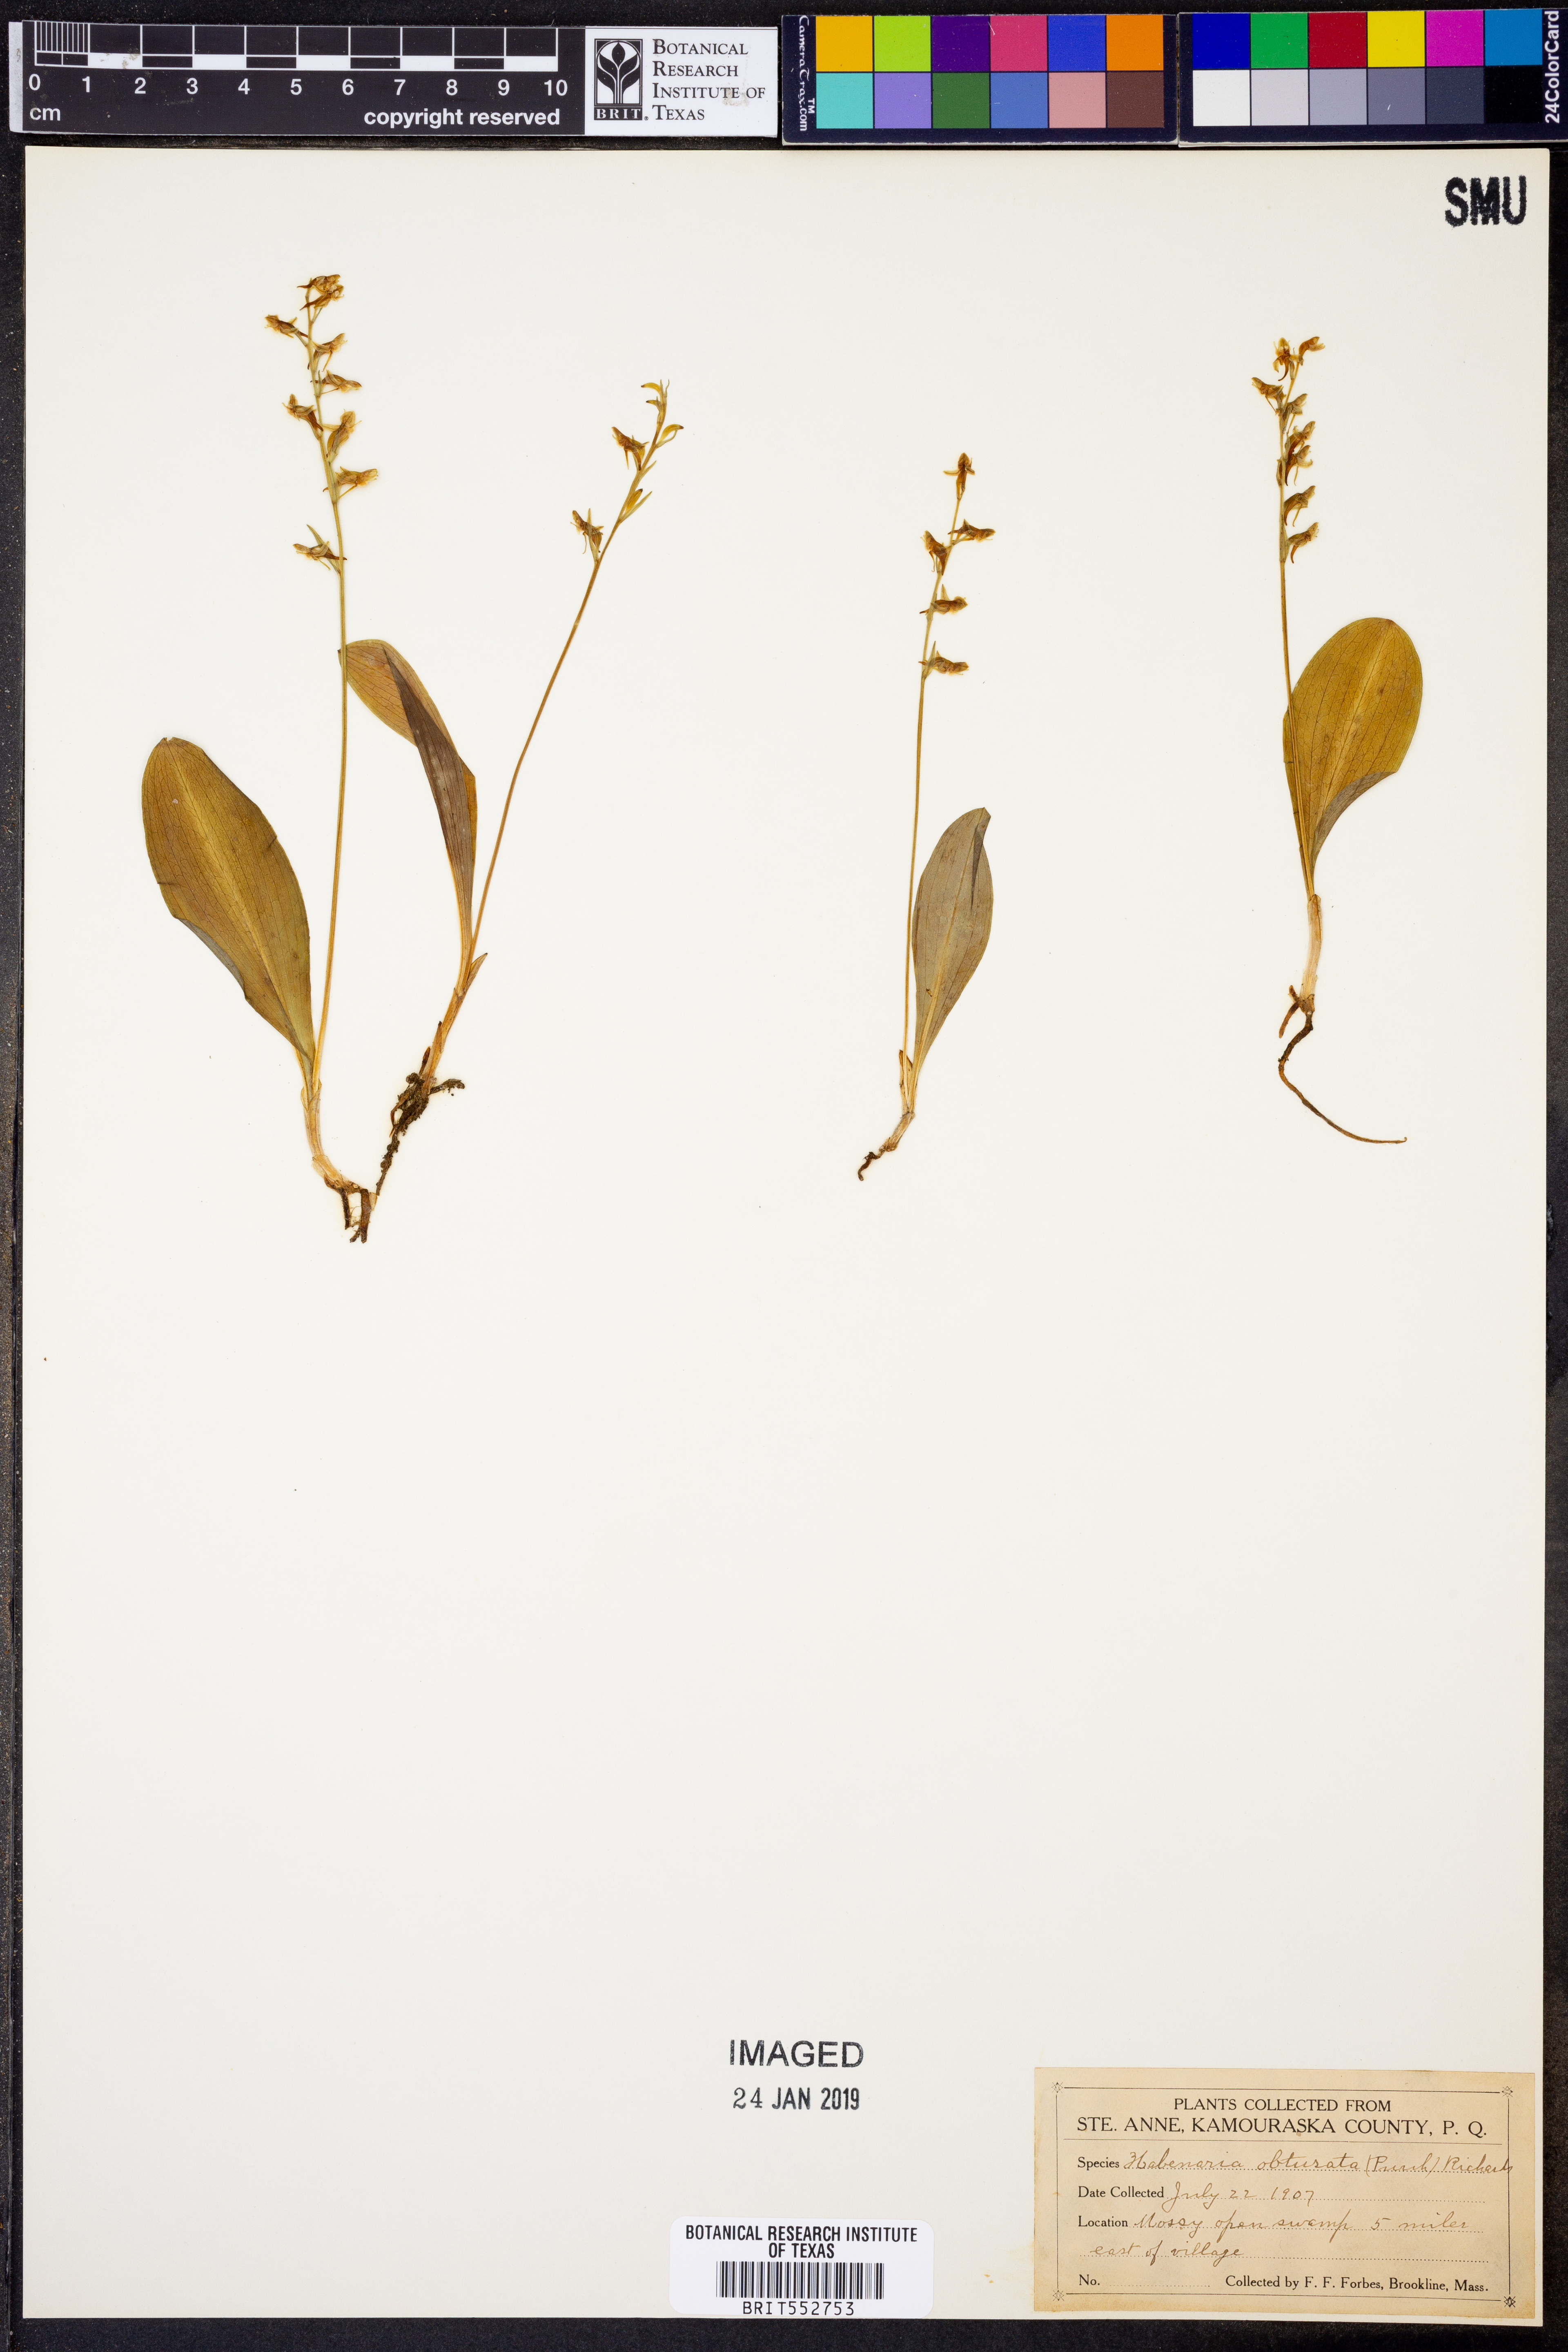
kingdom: Plantae
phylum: Tracheophyta
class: Liliopsida
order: Asparagales
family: Orchidaceae
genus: Platanthera
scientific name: Platanthera obtusata
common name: Blunt bog orchid
